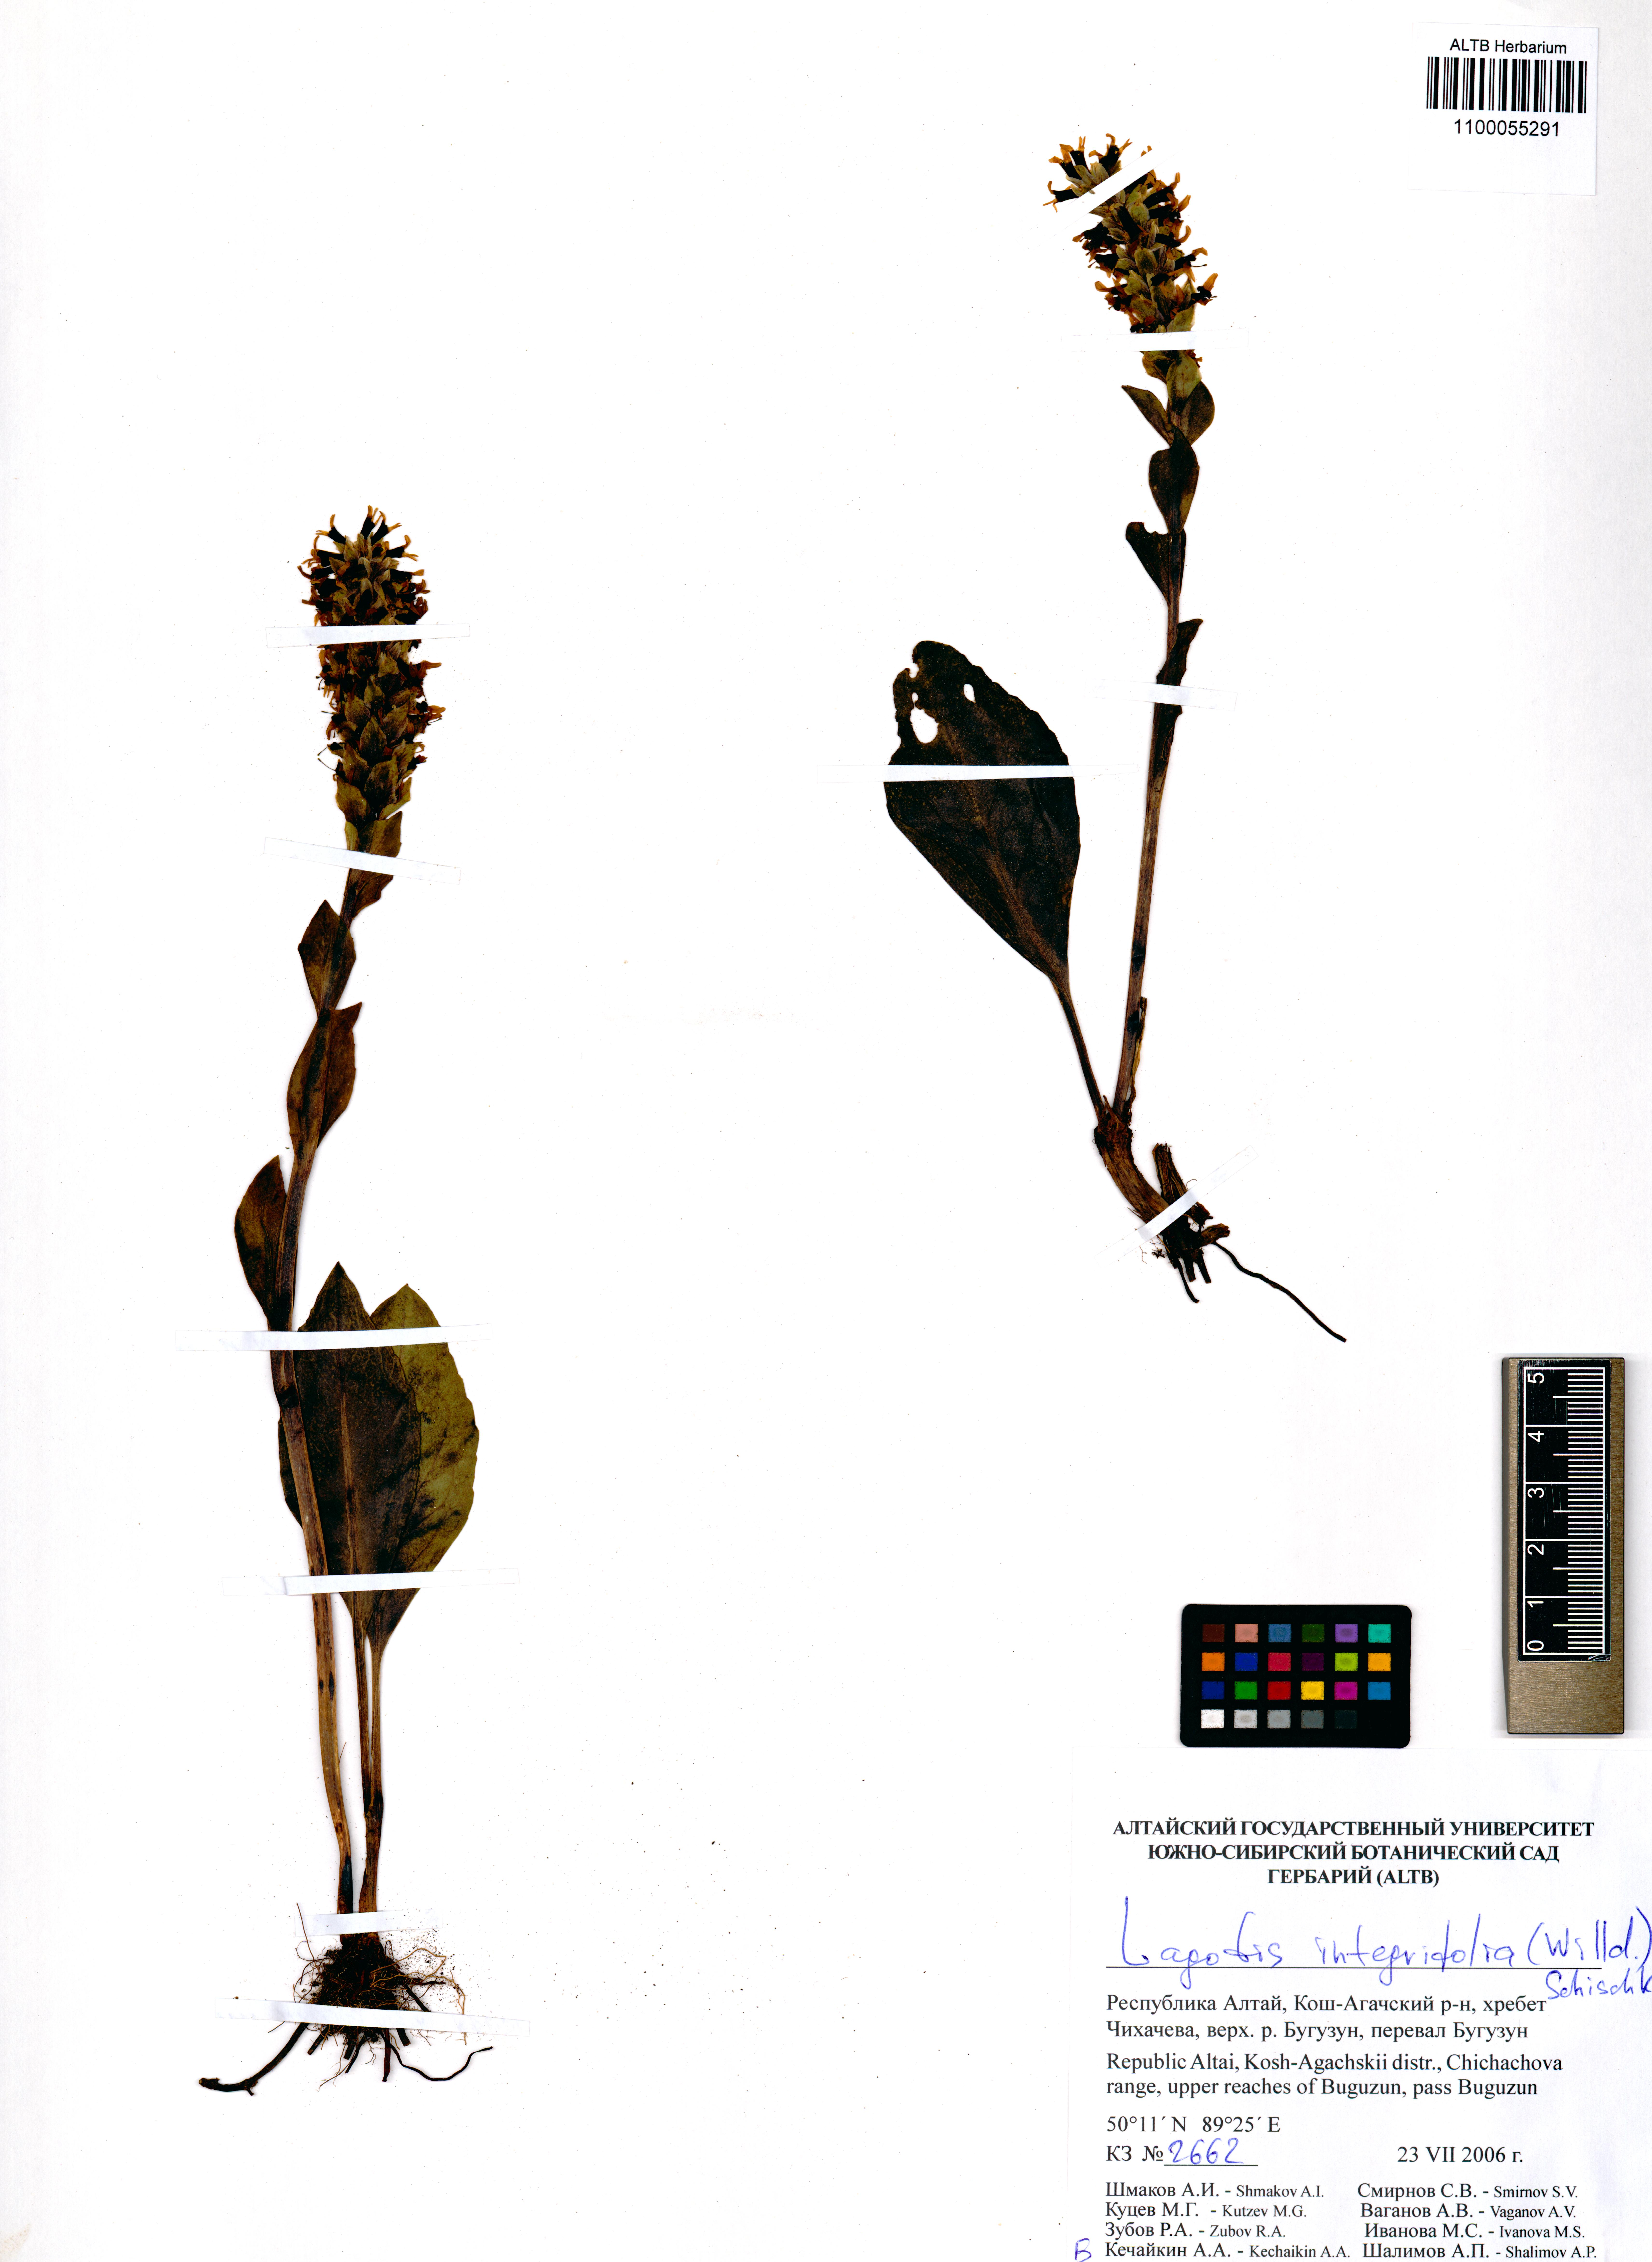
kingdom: Plantae
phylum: Tracheophyta
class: Magnoliopsida
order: Lamiales
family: Plantaginaceae
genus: Lagotis
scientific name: Lagotis integrifolia
